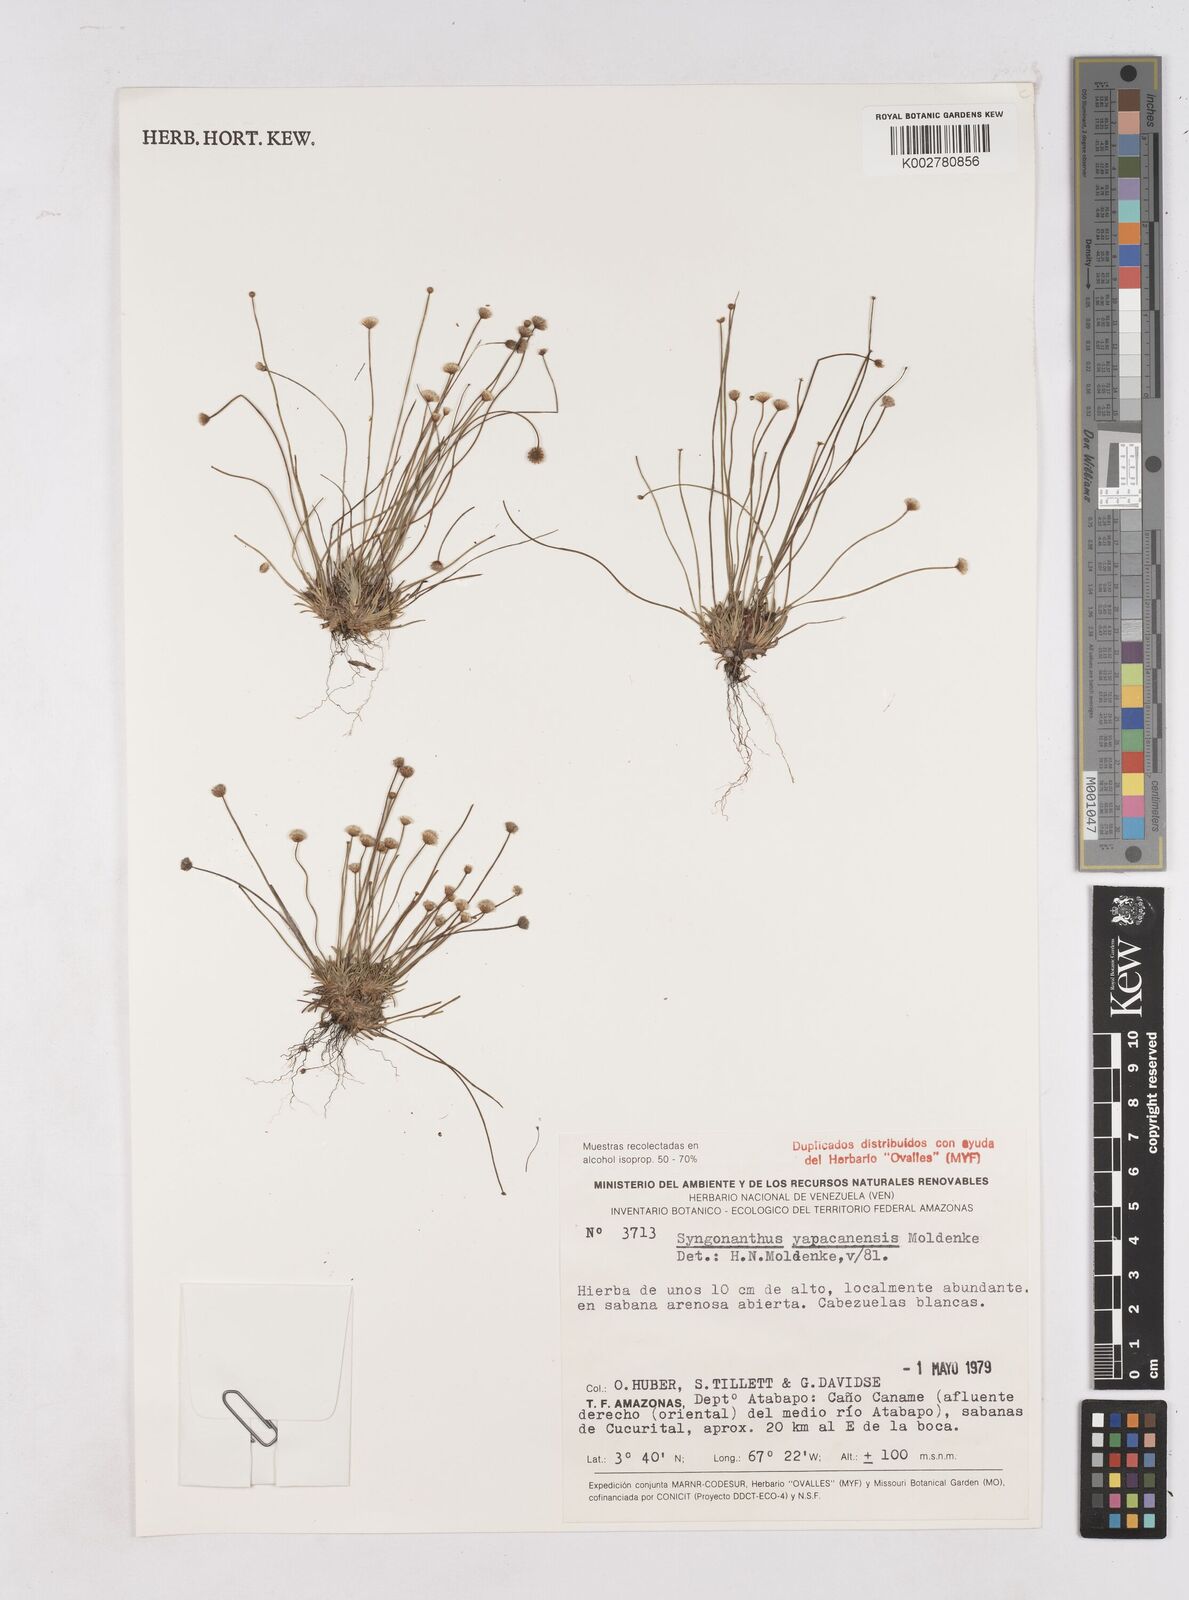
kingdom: Plantae
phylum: Tracheophyta
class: Liliopsida
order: Poales
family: Eriocaulaceae
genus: Paepalanthus
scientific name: Paepalanthus yapacanensis
